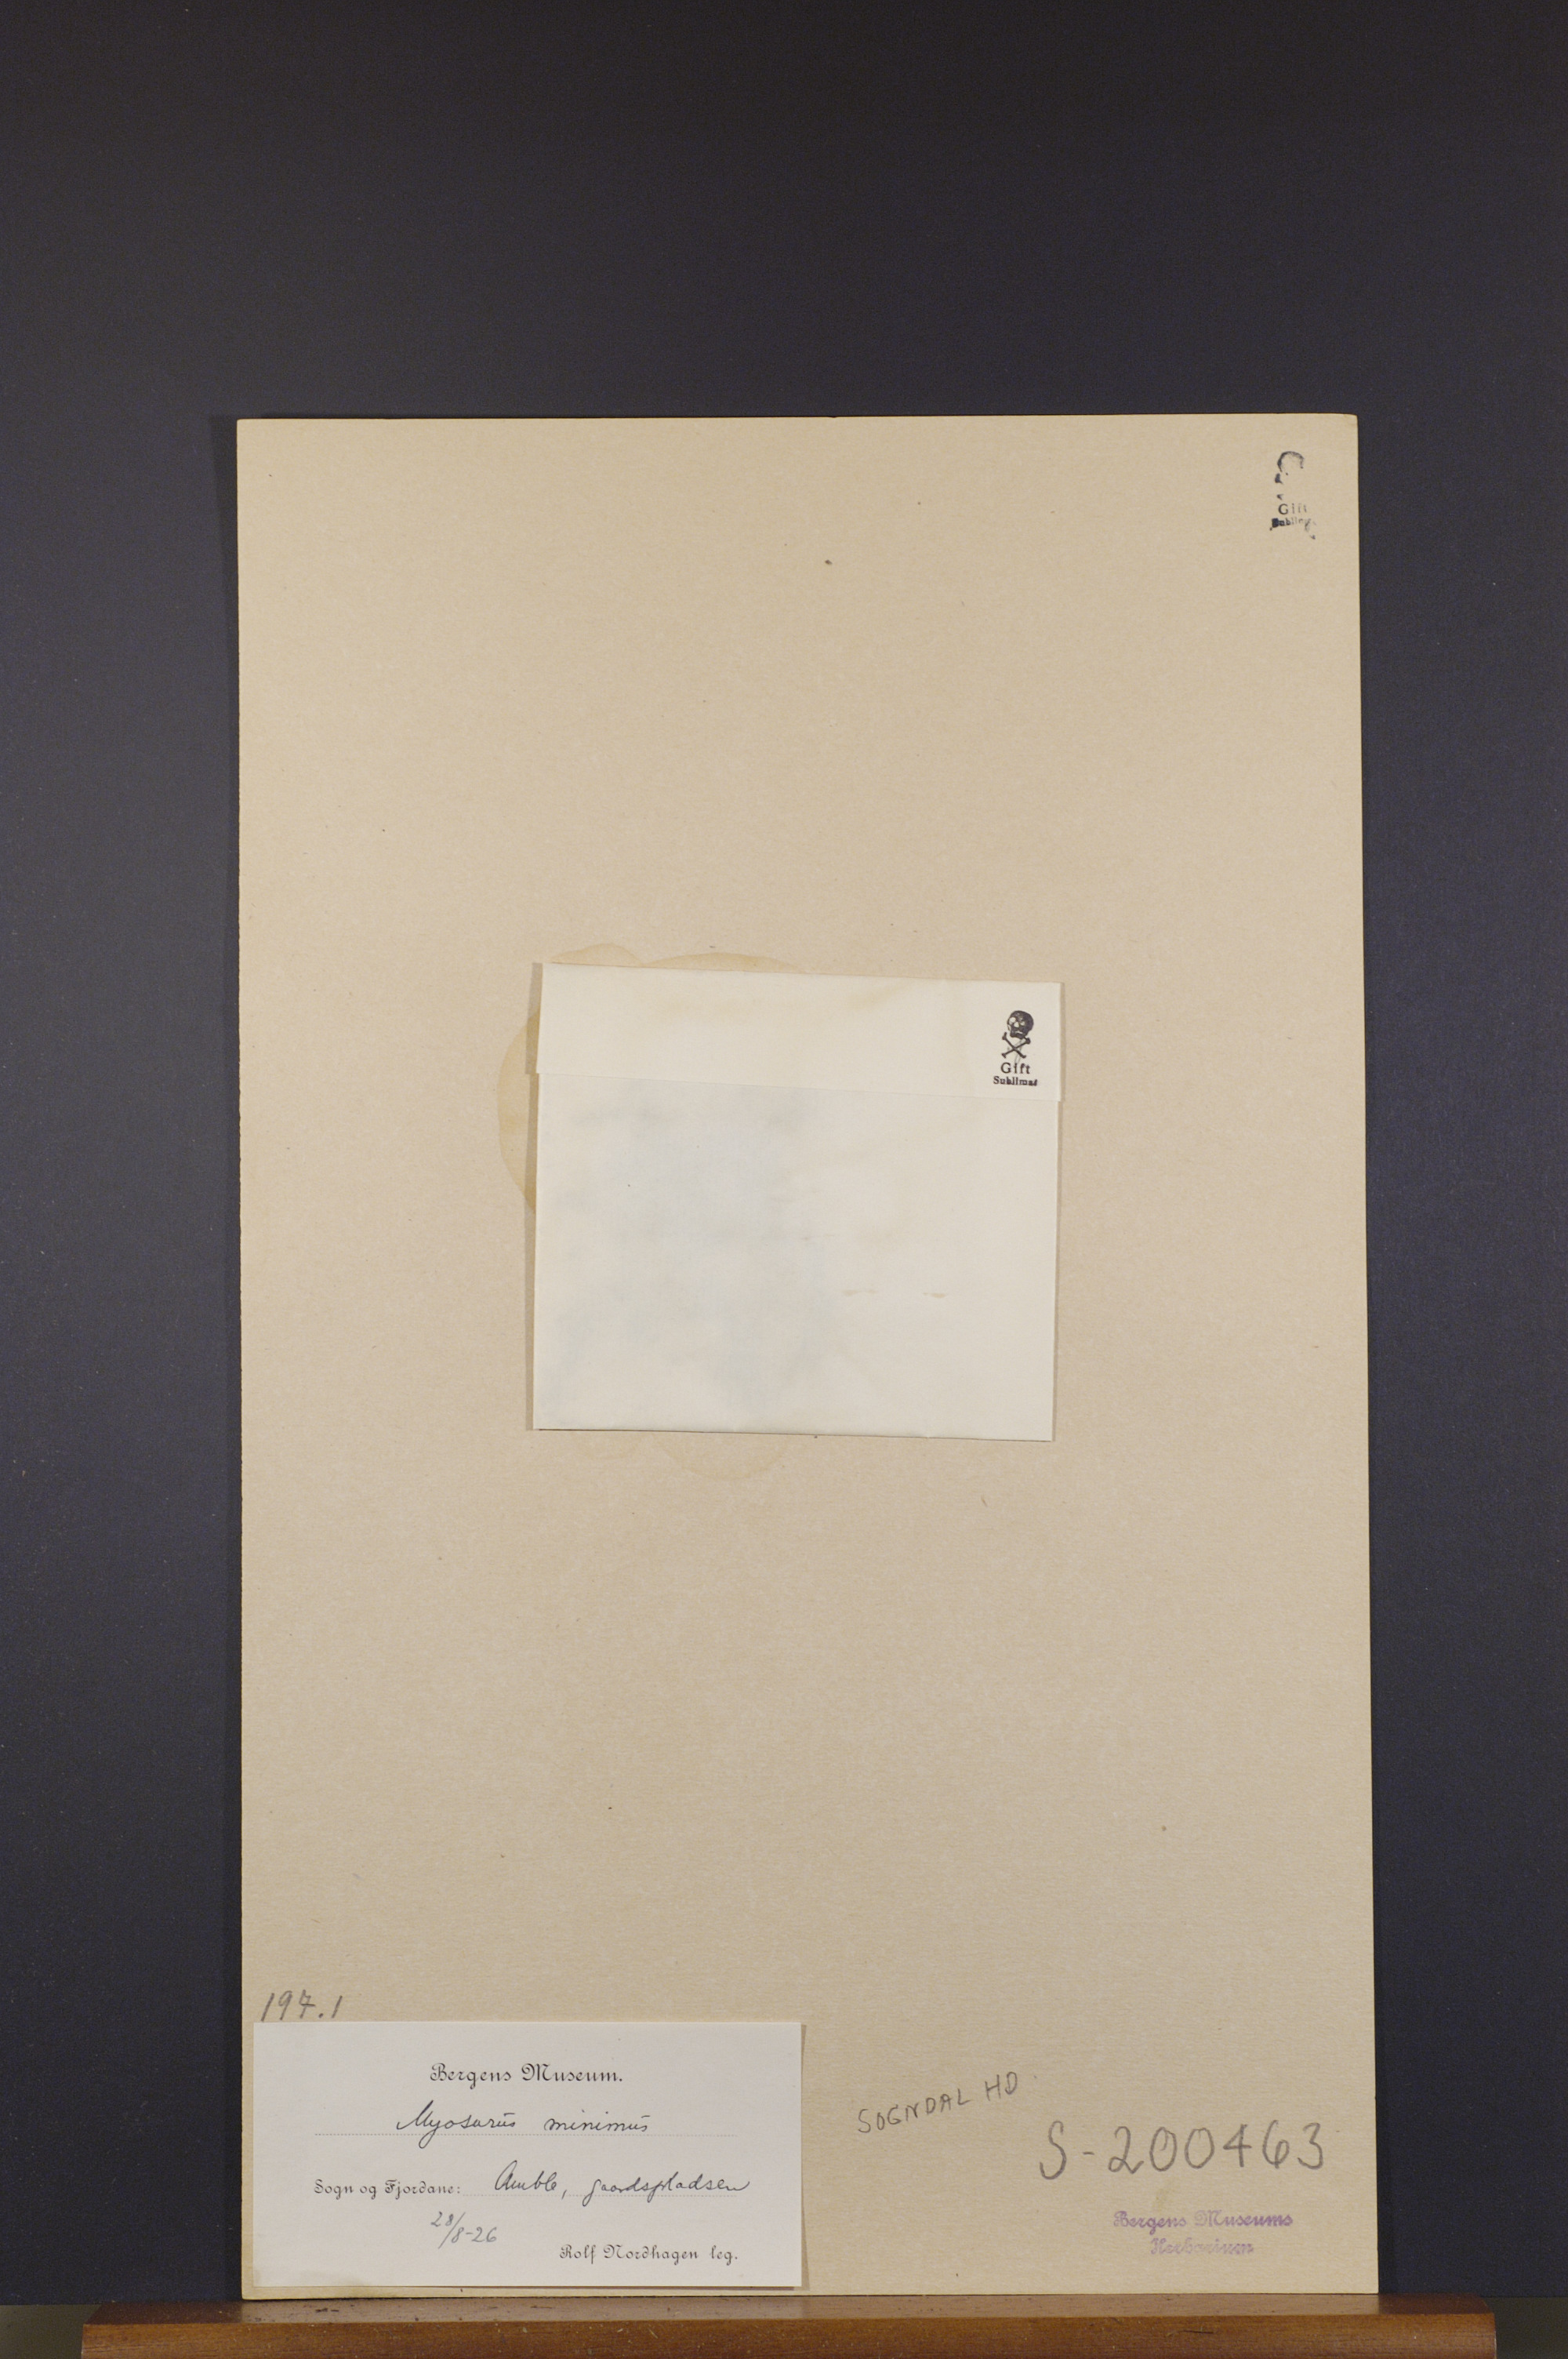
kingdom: Plantae
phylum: Tracheophyta
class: Magnoliopsida
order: Ranunculales
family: Ranunculaceae
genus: Myosurus
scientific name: Myosurus minimus
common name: Mousetail
